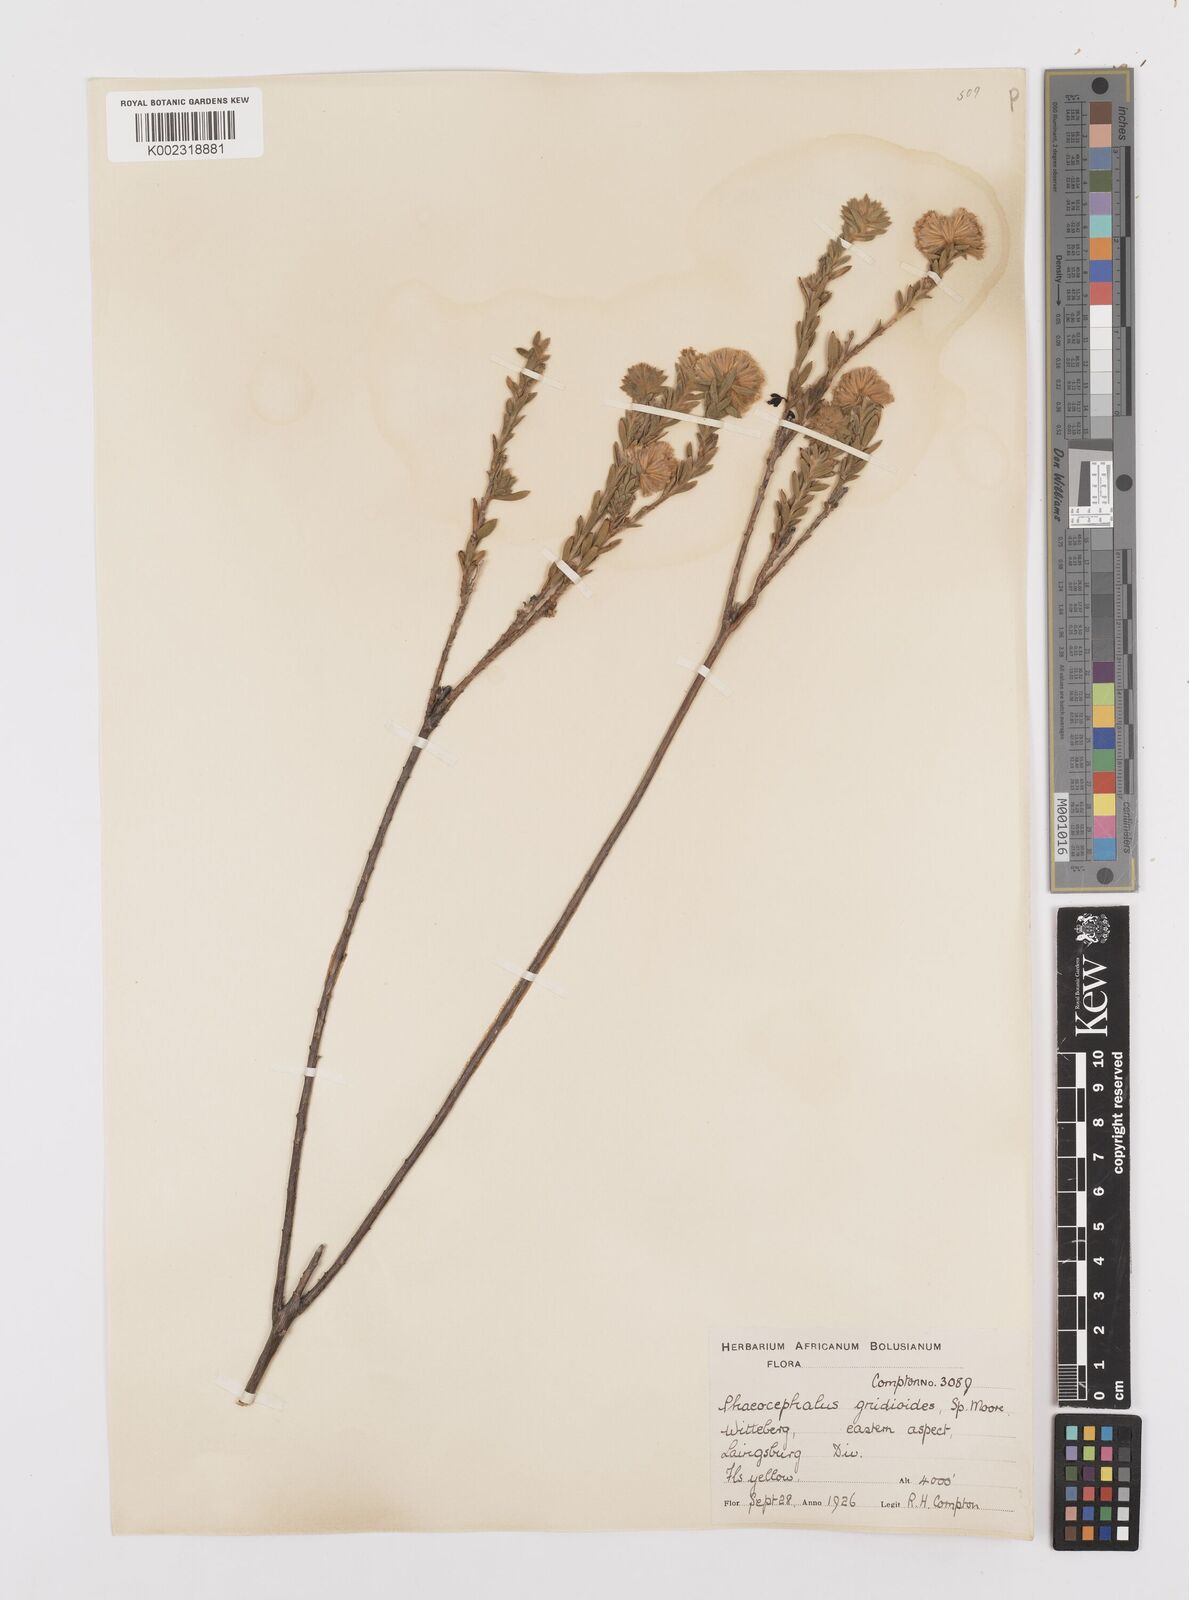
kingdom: Plantae
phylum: Tracheophyta
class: Magnoliopsida
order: Asterales
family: Asteraceae
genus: Hymenolepis
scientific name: Hymenolepis gnidioides
